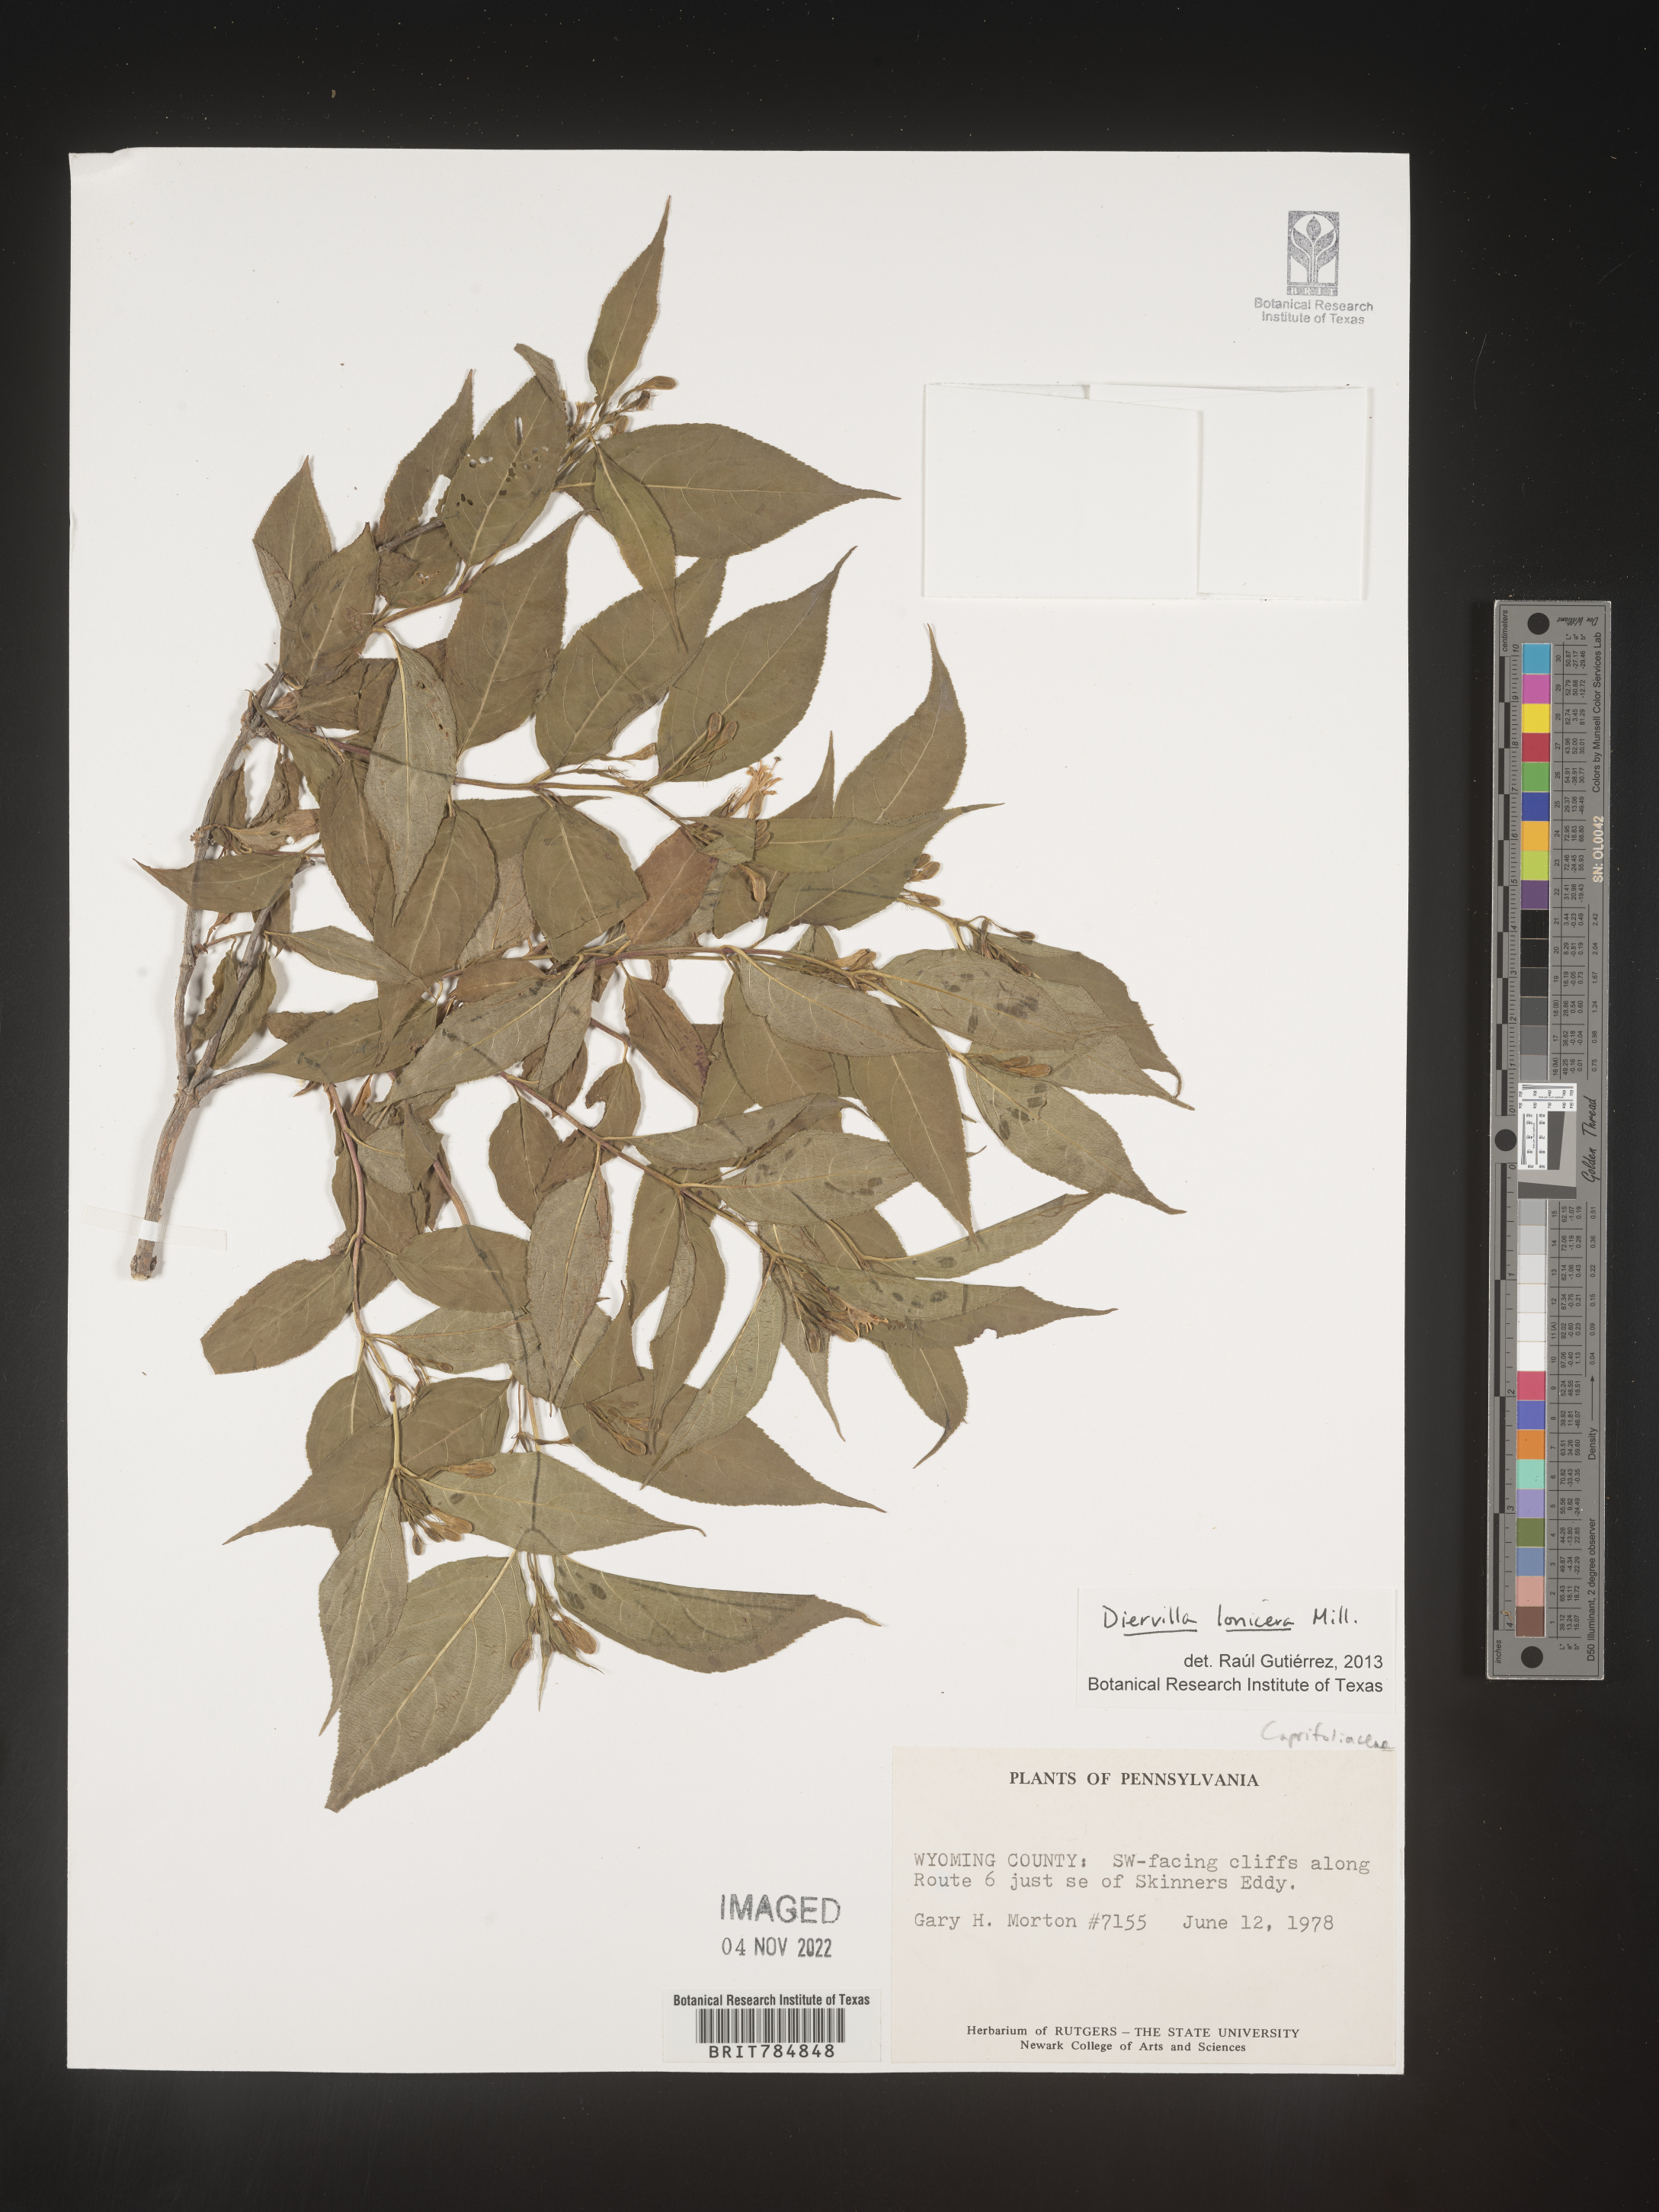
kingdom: Plantae
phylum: Tracheophyta
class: Magnoliopsida
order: Dipsacales
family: Caprifoliaceae
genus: Diervilla
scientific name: Diervilla lonicera
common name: Bush-honeysuckle
